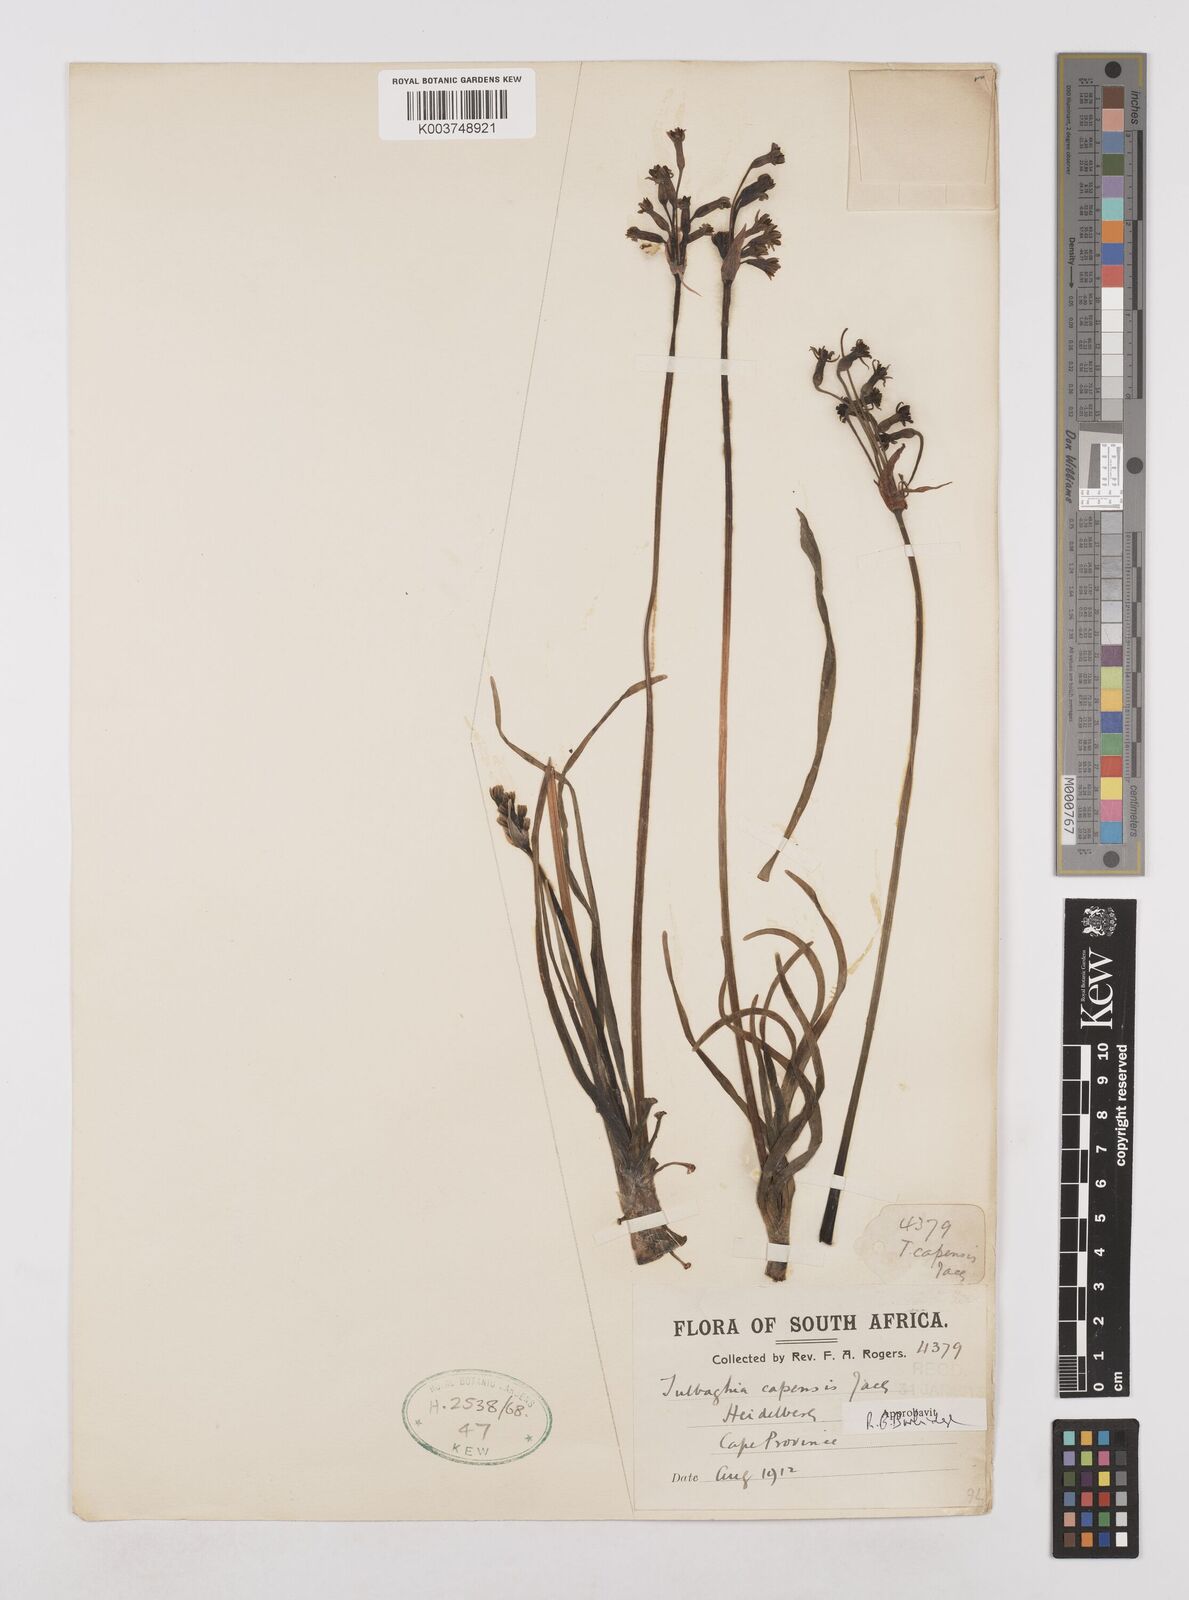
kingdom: Plantae
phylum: Tracheophyta
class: Liliopsida
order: Asparagales
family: Amaryllidaceae
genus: Tulbaghia
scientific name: Tulbaghia capensis
